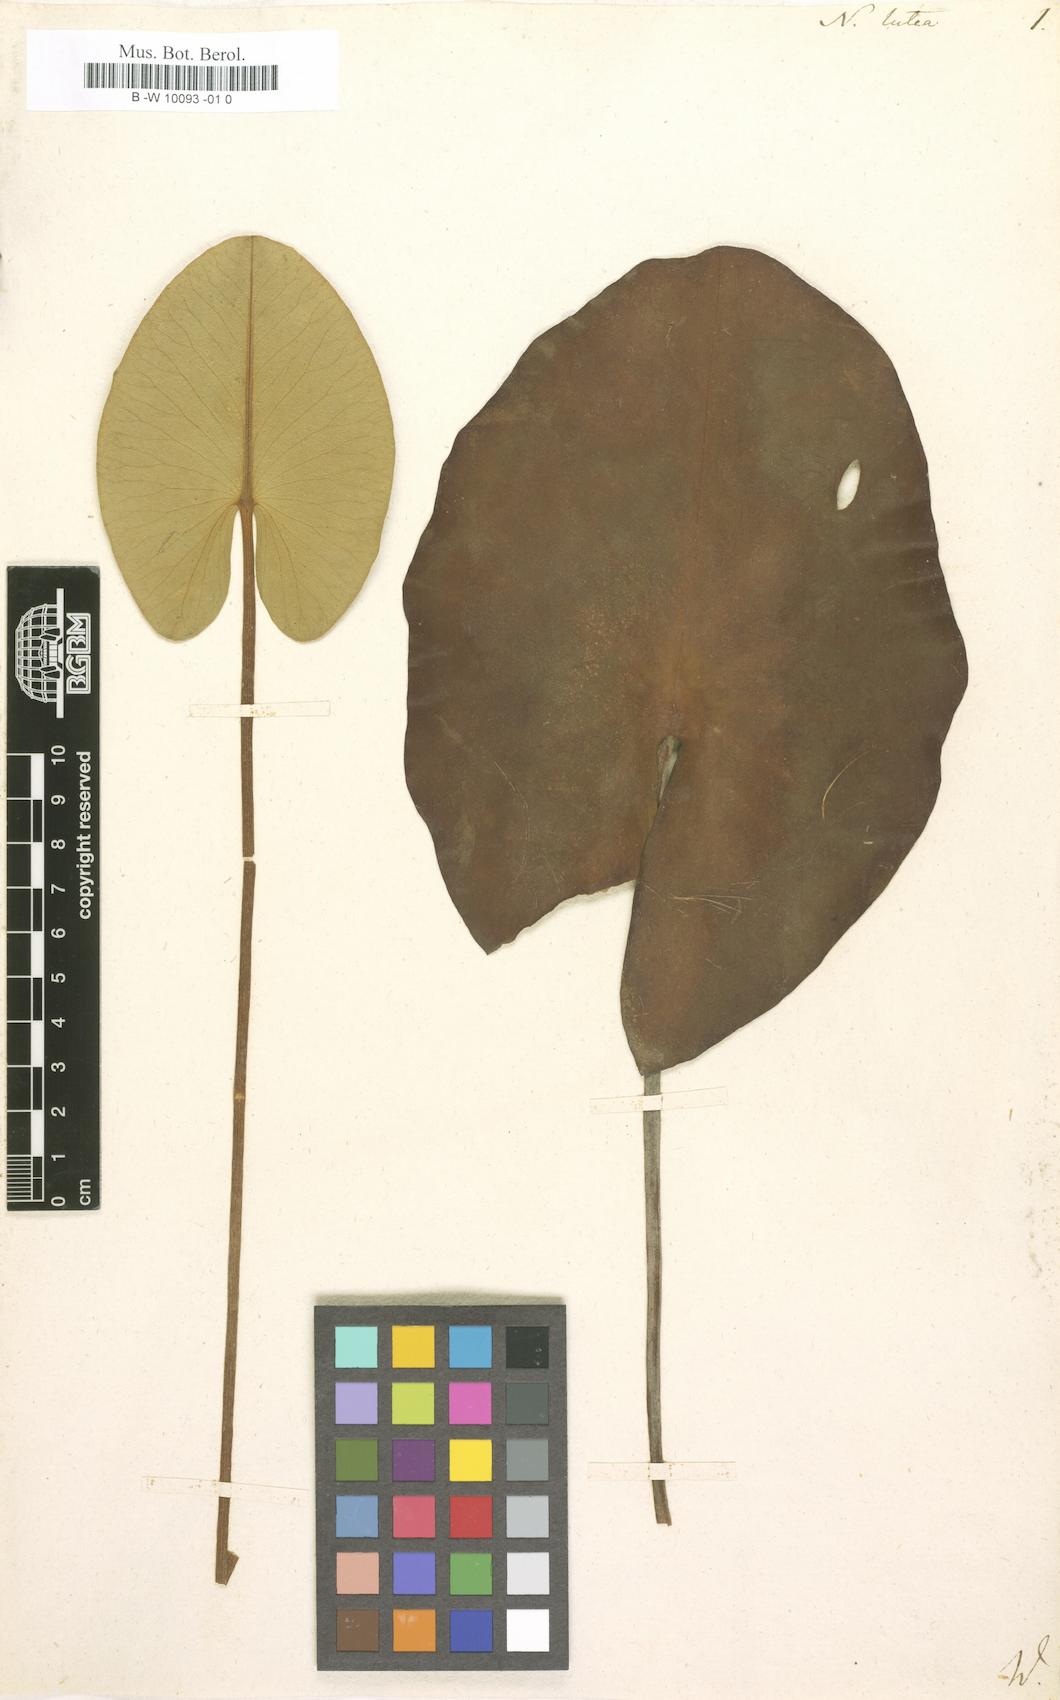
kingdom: Plantae
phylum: Tracheophyta
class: Magnoliopsida
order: Nymphaeales
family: Nymphaeaceae
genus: Nymphaea
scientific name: Nymphaea lutea
